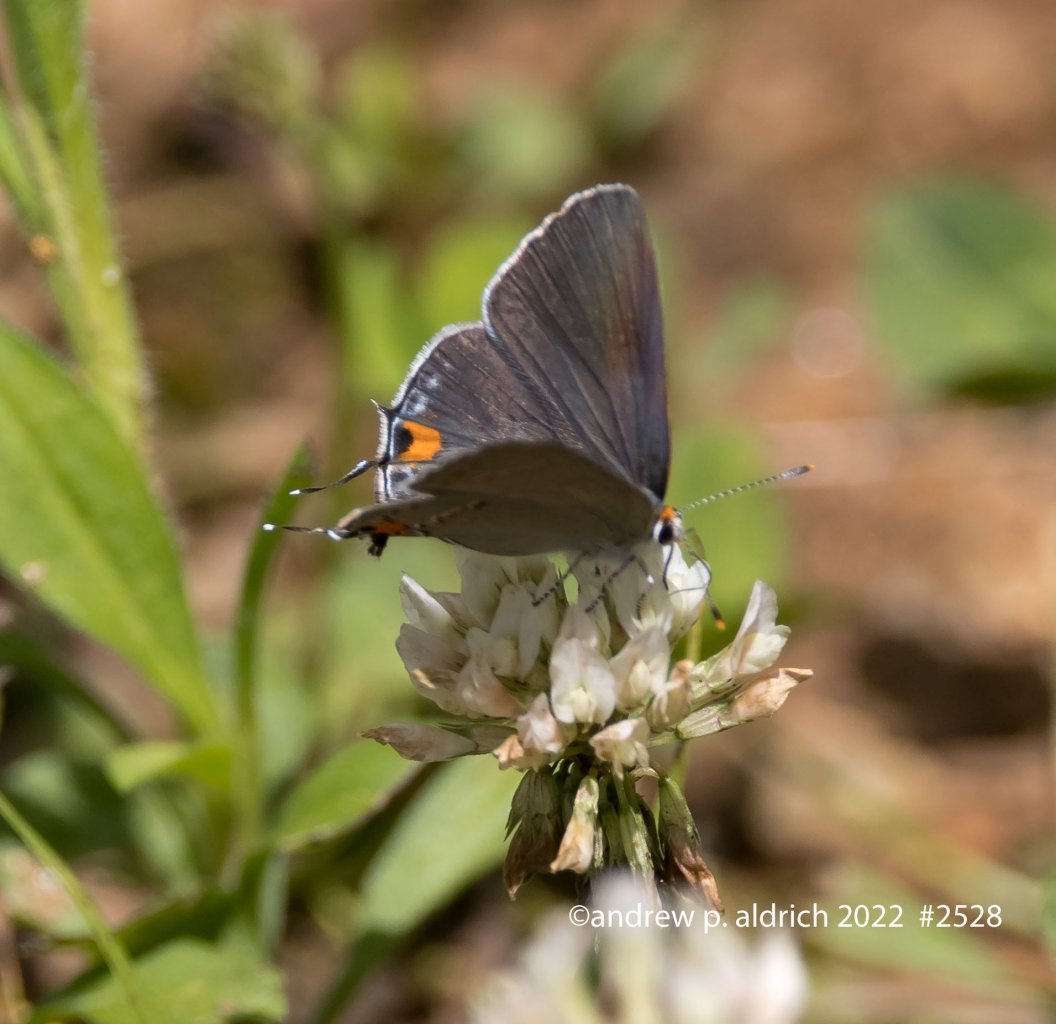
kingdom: Animalia
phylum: Arthropoda
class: Insecta
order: Lepidoptera
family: Lycaenidae
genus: Strymon
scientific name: Strymon melinus
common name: Gray Hairstreak
